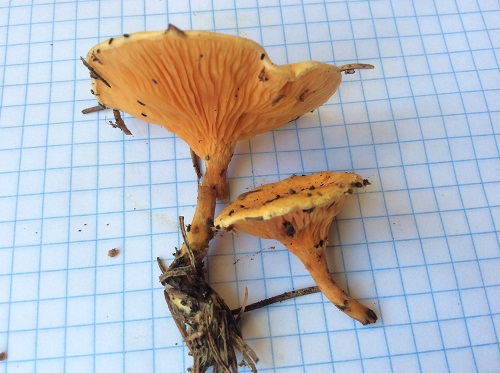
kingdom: Fungi
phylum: Basidiomycota
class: Agaricomycetes
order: Boletales
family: Hygrophoropsidaceae
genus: Hygrophoropsis
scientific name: Hygrophoropsis aurantiaca
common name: almindelig orangekantarel
